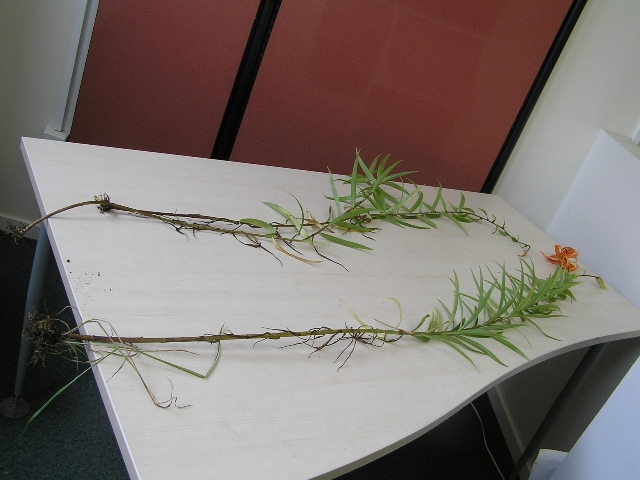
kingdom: Plantae
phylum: Tracheophyta
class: Liliopsida
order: Liliales
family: Liliaceae
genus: Lilium
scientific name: Lilium lancifolium
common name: Tiger lily
